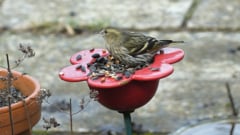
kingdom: Animalia
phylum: Chordata
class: Aves
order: Passeriformes
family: Fringillidae
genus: Spinus
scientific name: Spinus spinus
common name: Eurasian siskin
